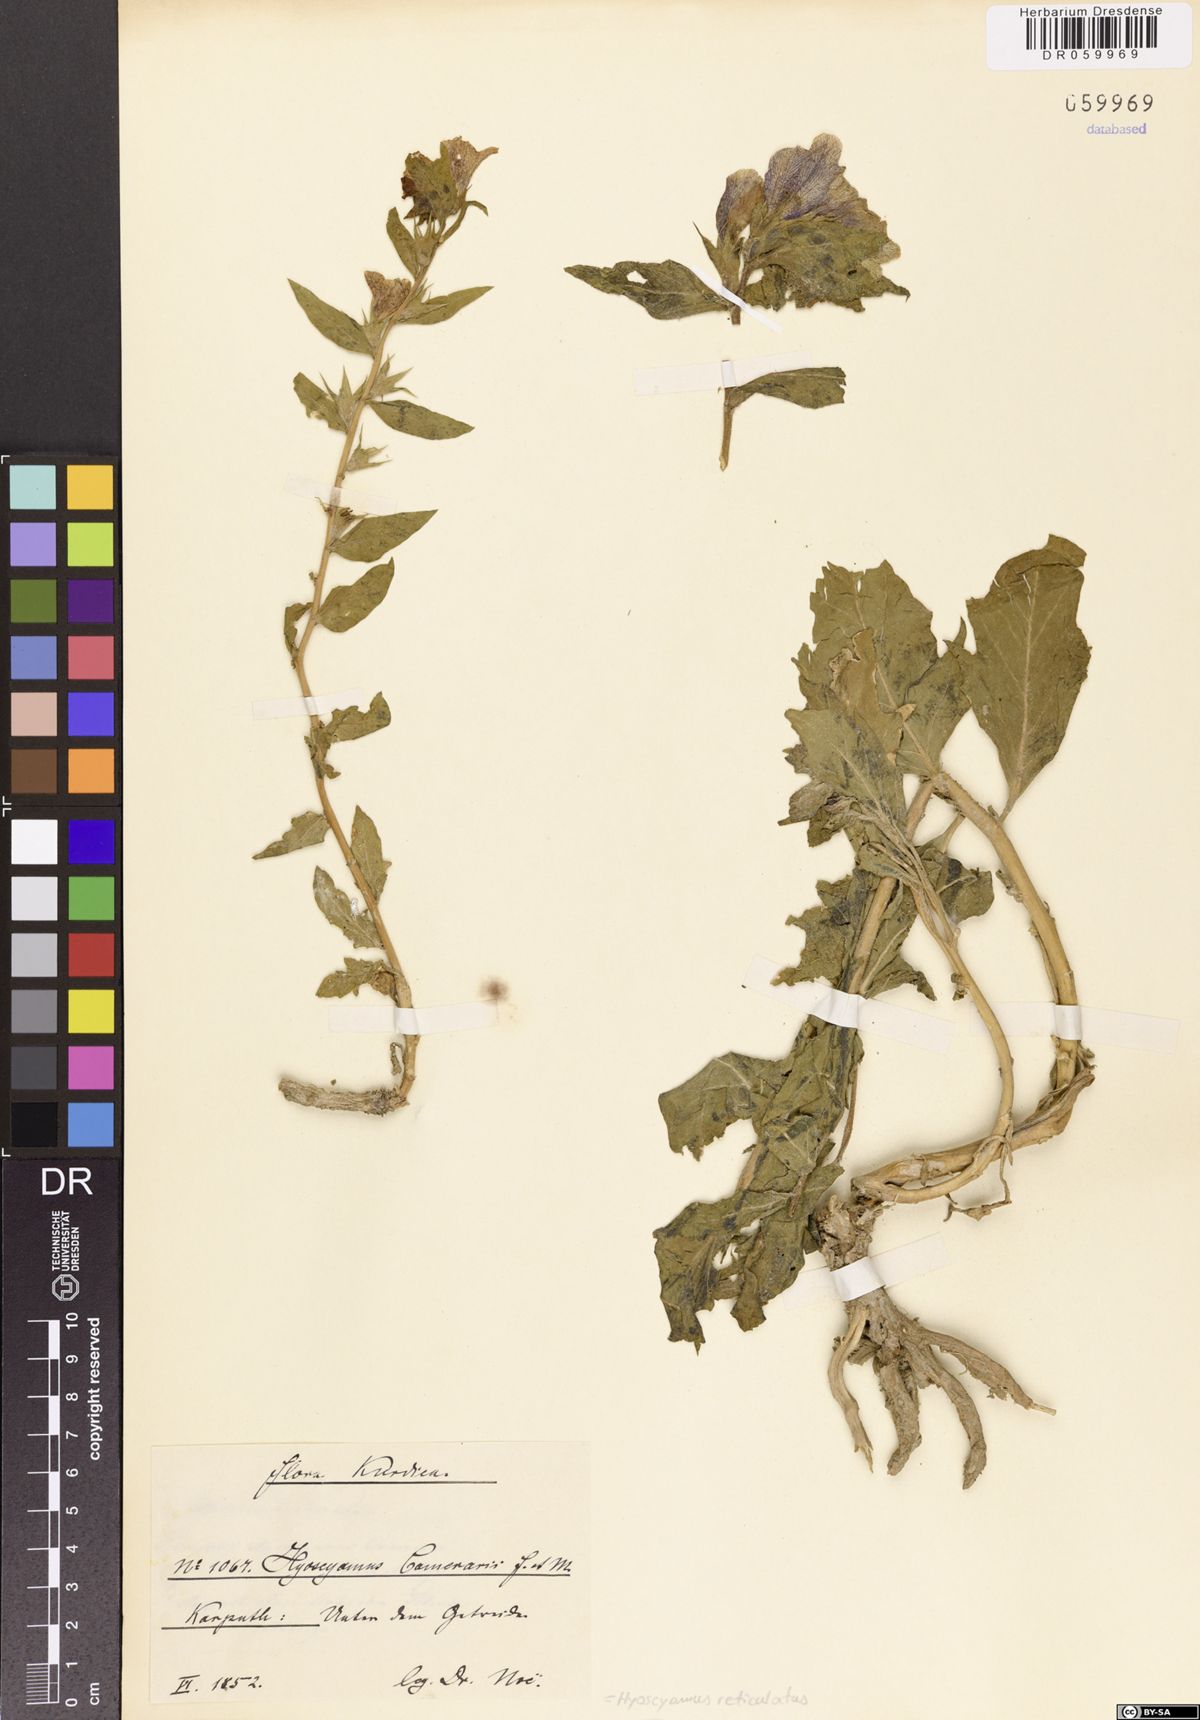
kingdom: Plantae
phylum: Tracheophyta
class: Magnoliopsida
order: Solanales
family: Solanaceae
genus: Hyoscyamus
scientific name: Hyoscyamus reticulatus
